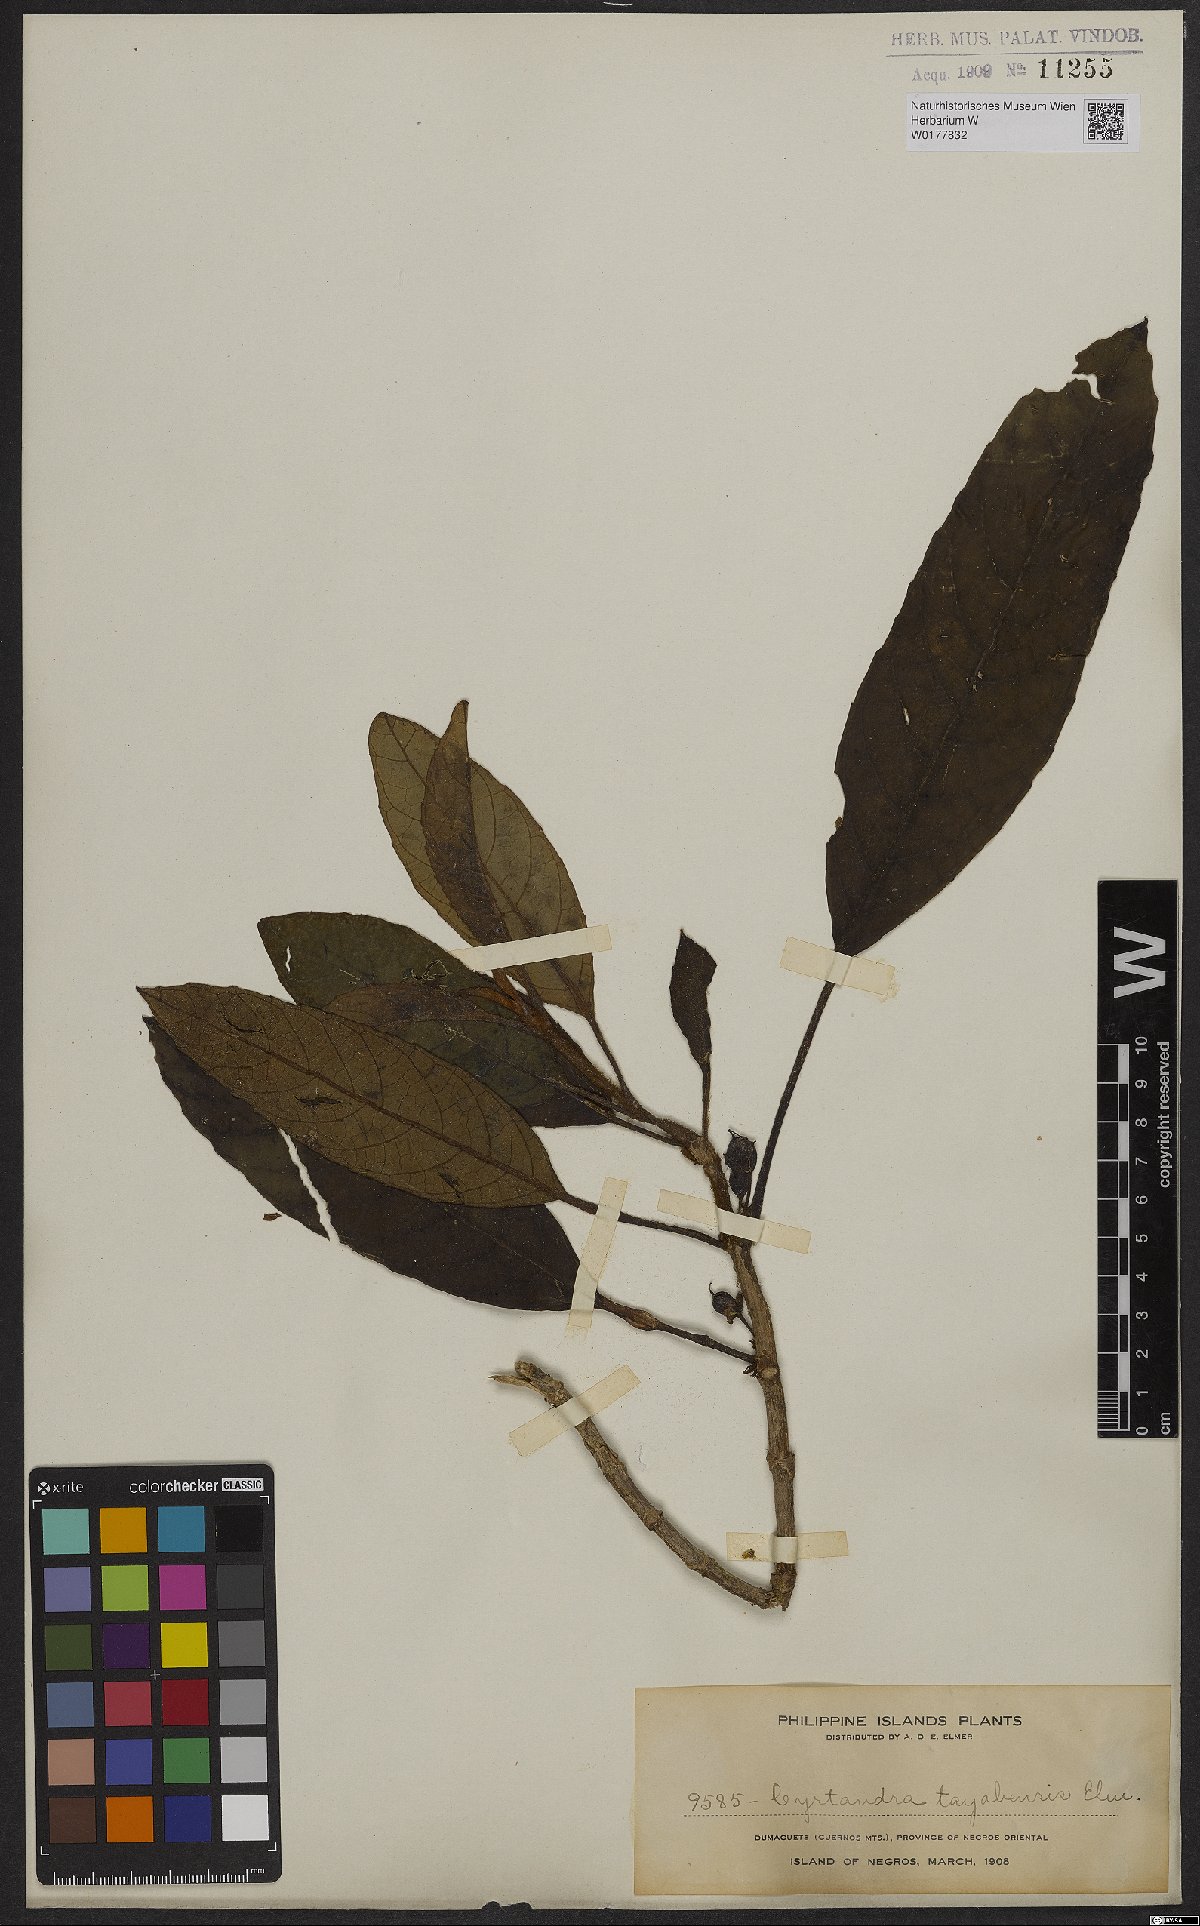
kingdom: Plantae
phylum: Tracheophyta
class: Magnoliopsida
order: Lamiales
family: Gesneriaceae
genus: Cyrtandra
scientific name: Cyrtandra
